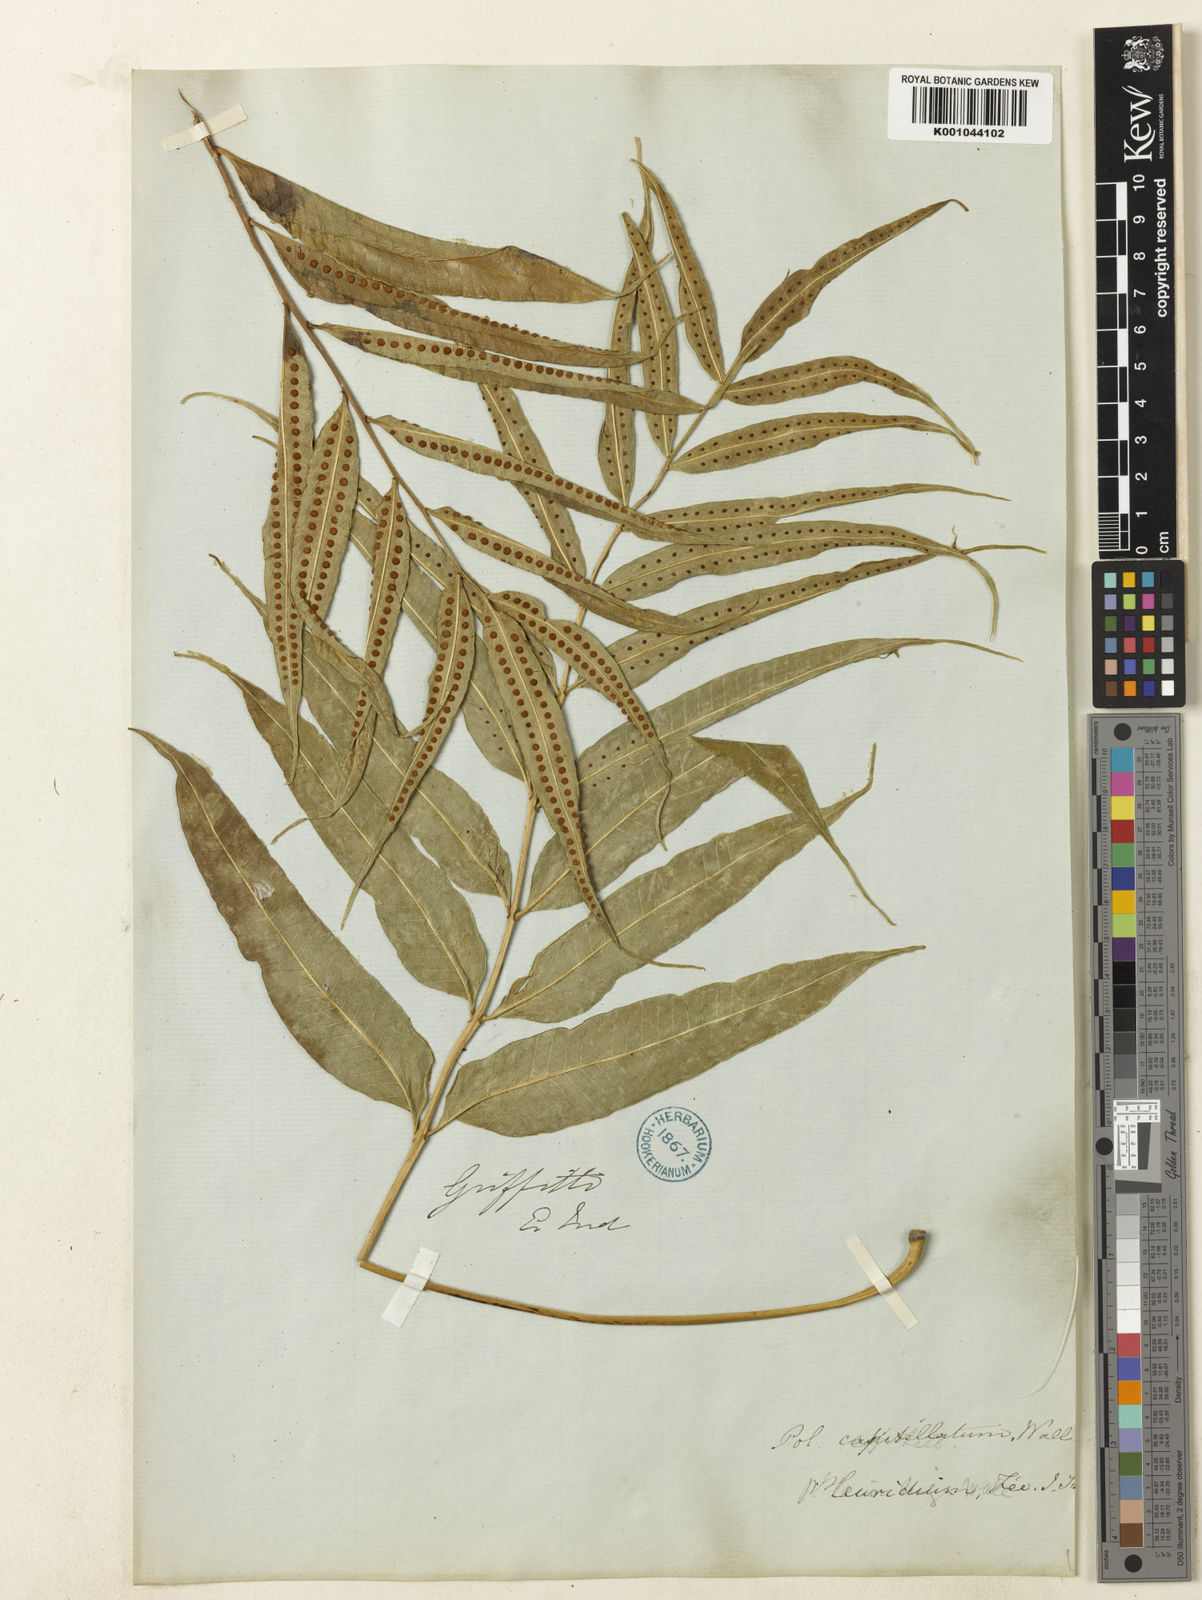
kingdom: Plantae
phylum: Tracheophyta
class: Polypodiopsida
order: Polypodiales
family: Polypodiaceae
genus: Selliguea
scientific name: Selliguea tenuicauda
